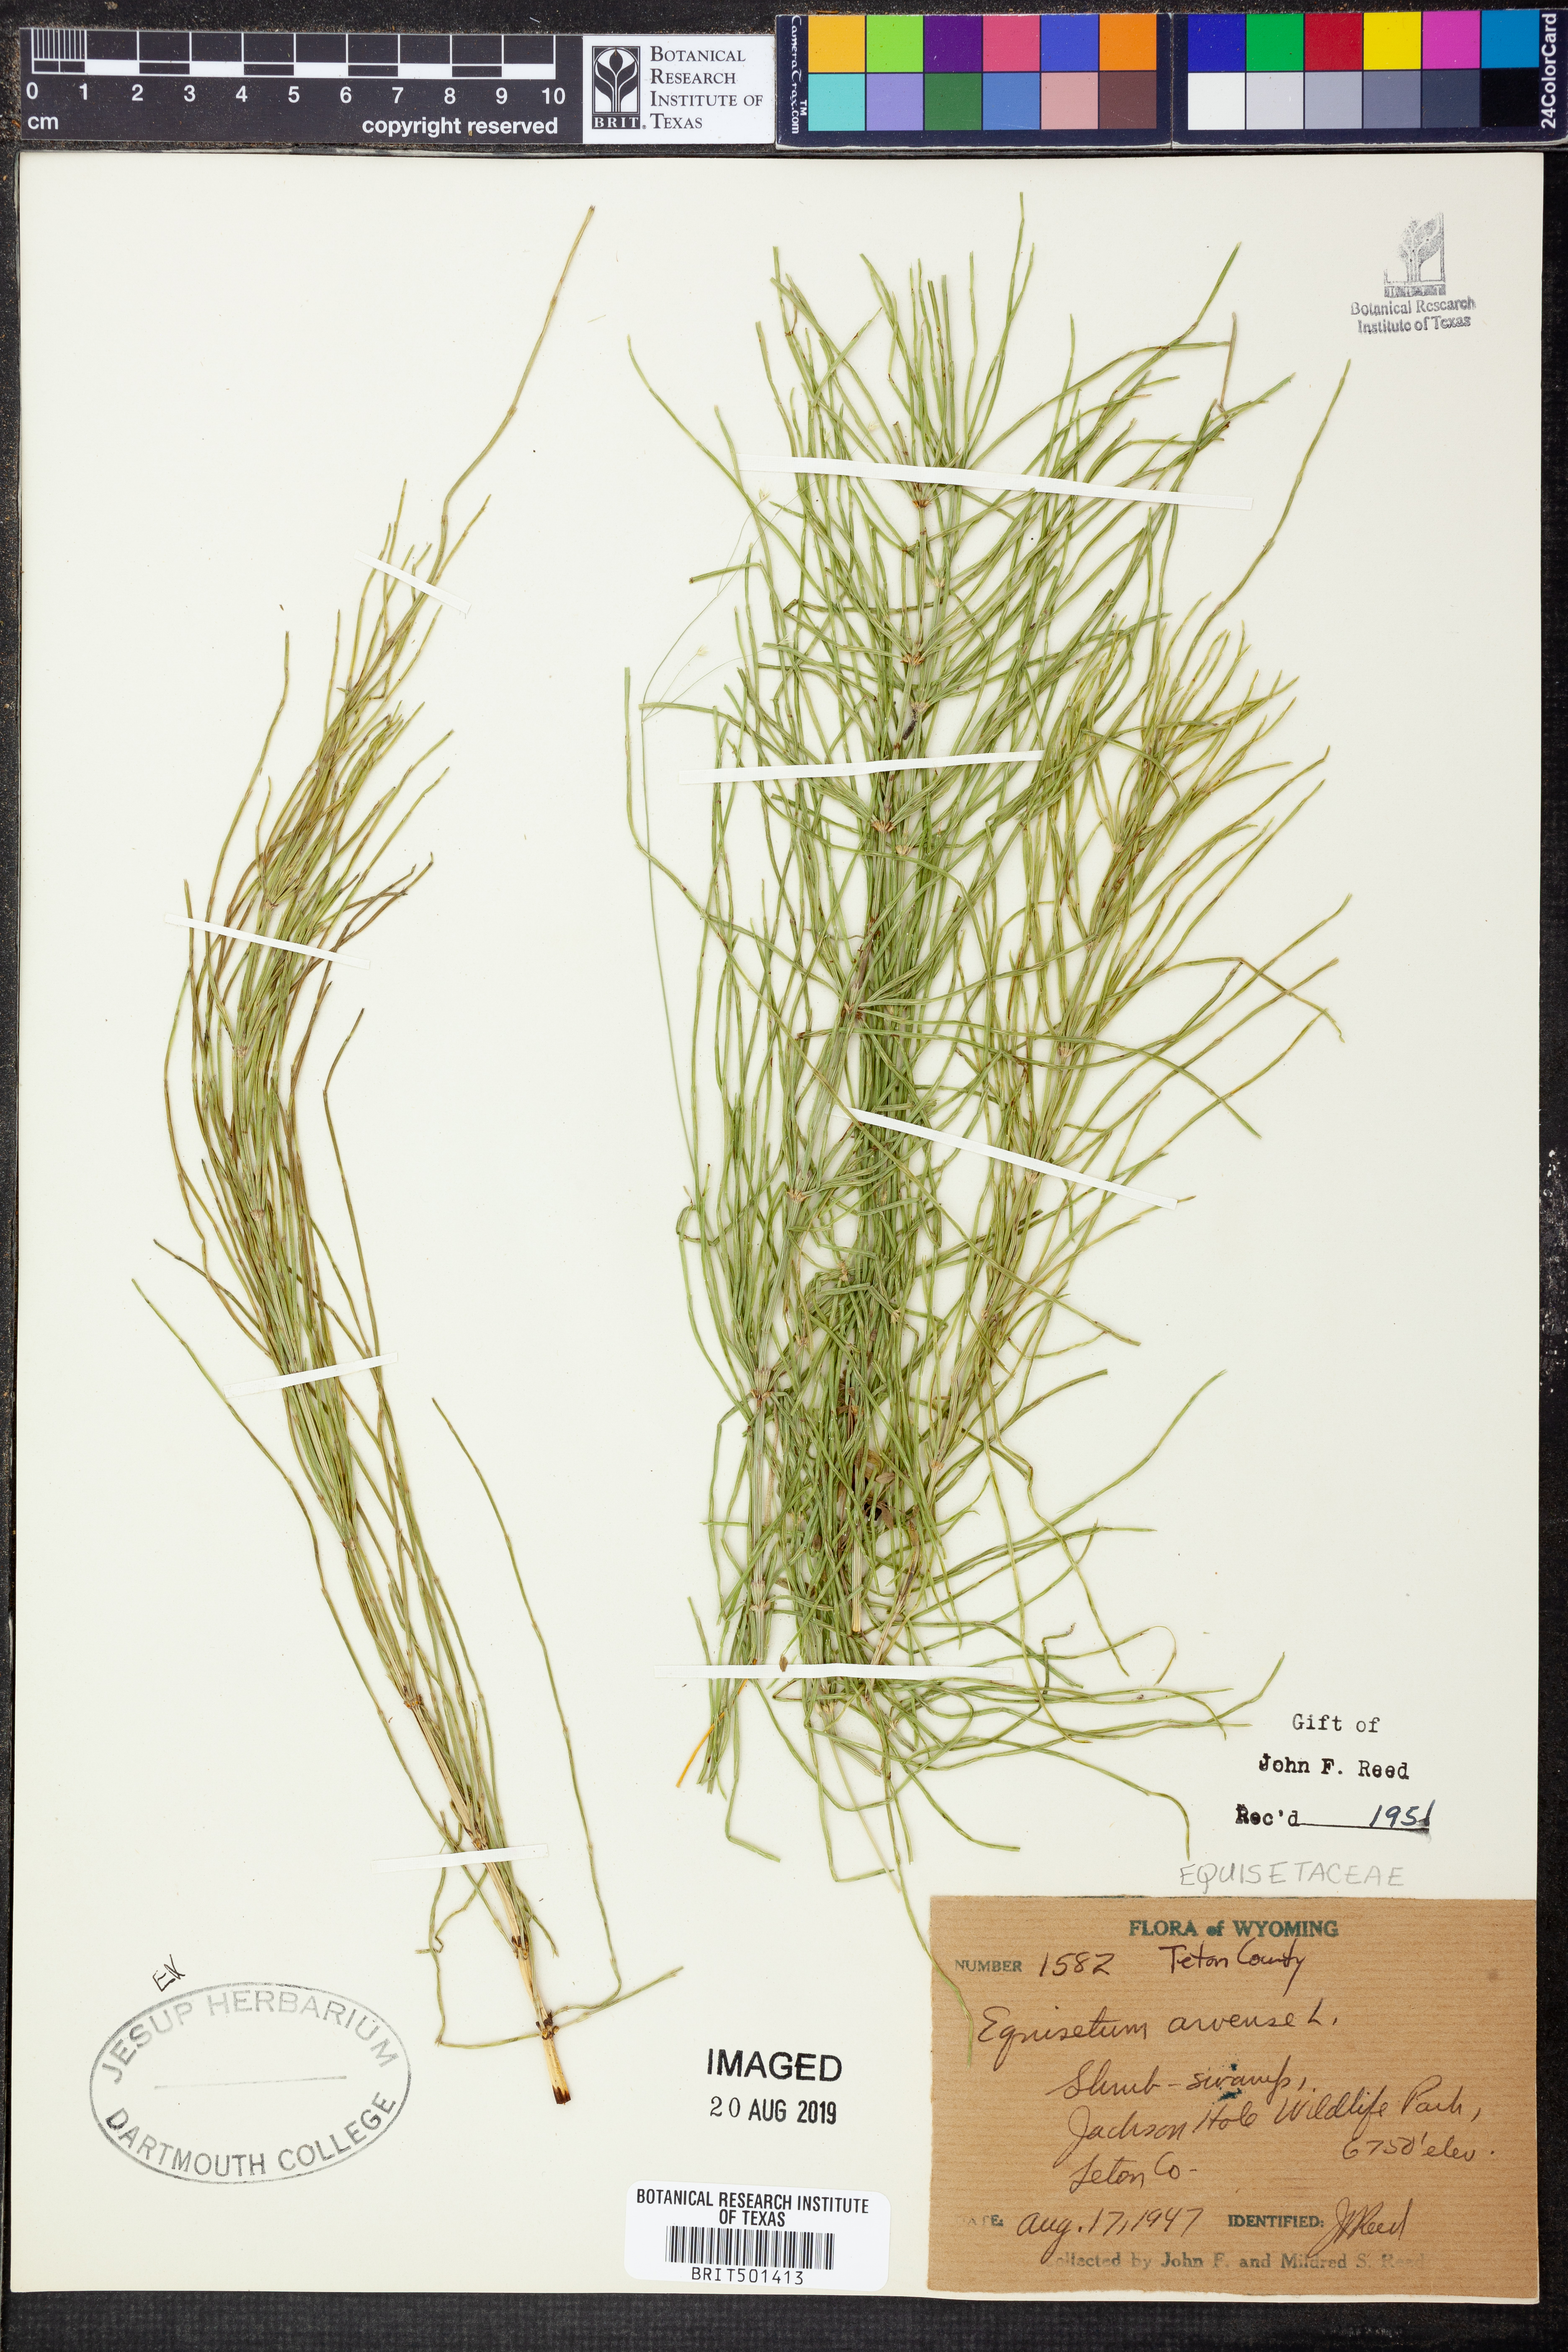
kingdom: Plantae
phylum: Tracheophyta
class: Polypodiopsida
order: Equisetales
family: Equisetaceae
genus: Equisetum
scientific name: Equisetum arvense
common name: Field horsetail
